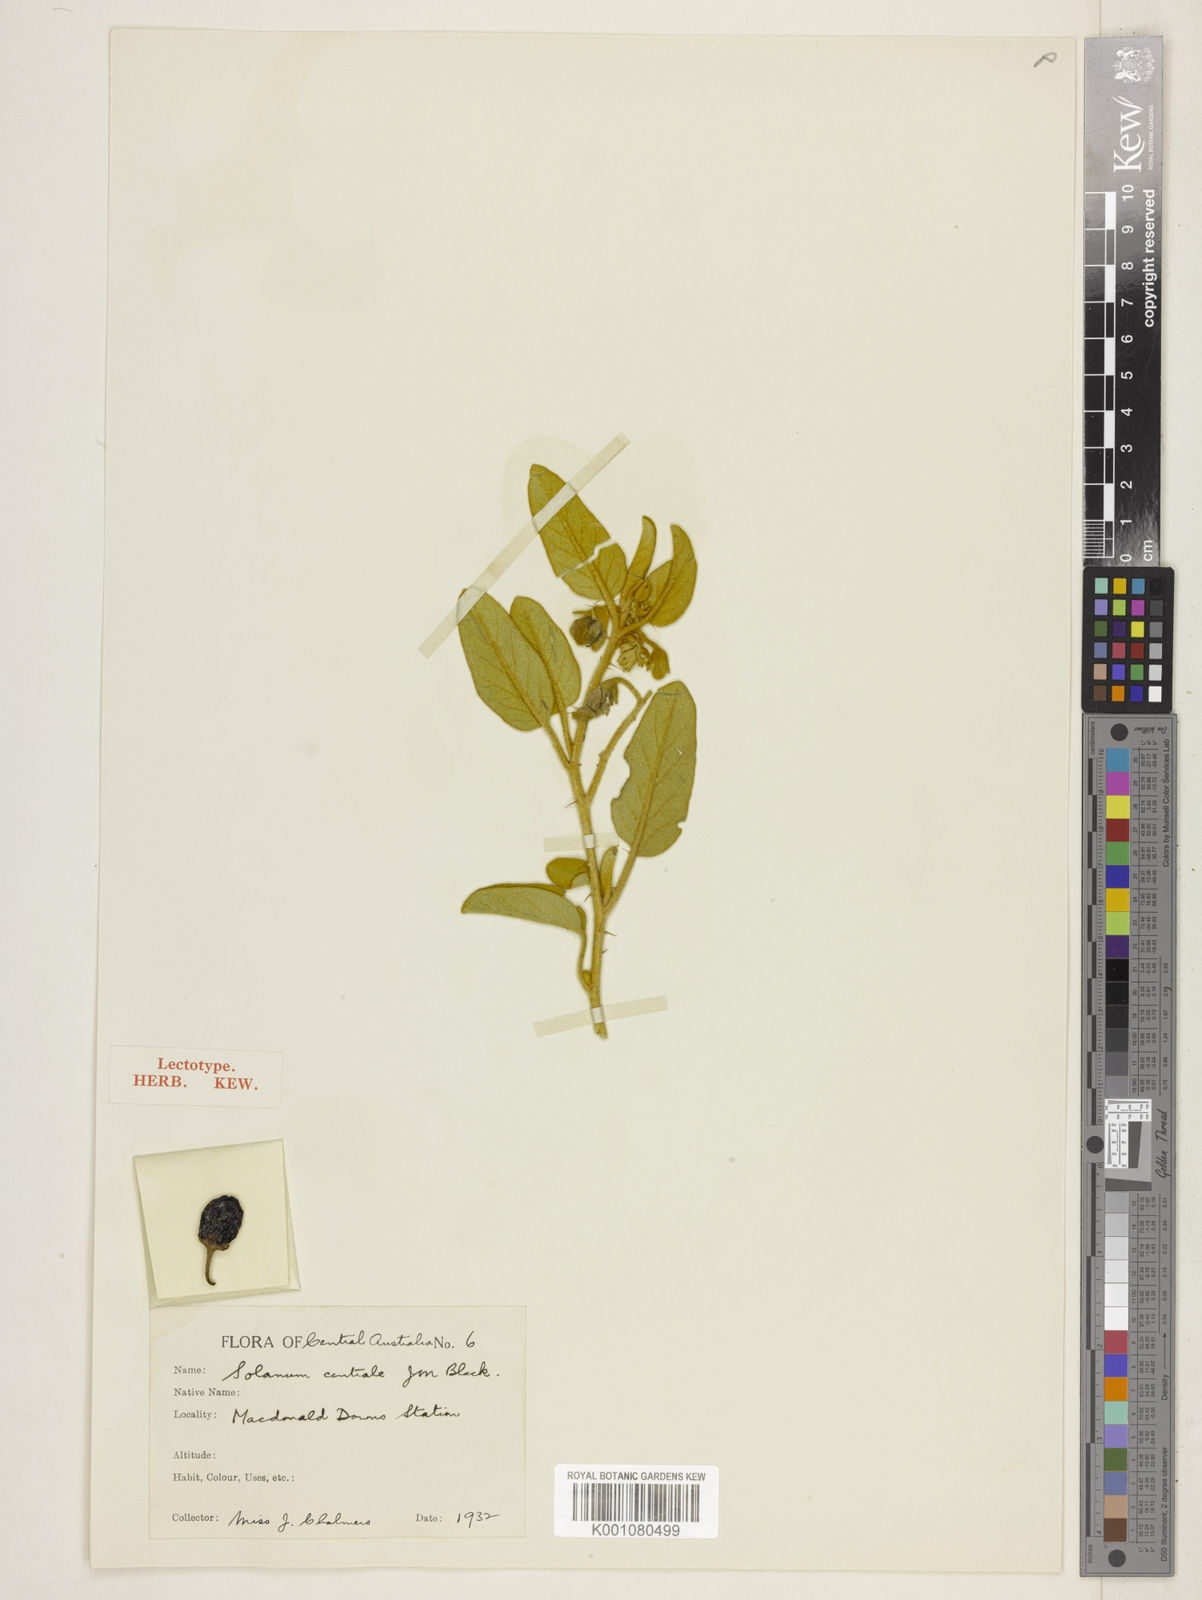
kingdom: Plantae
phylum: Tracheophyta
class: Magnoliopsida
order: Solanales
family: Solanaceae
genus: Solanum
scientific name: Solanum centrale
